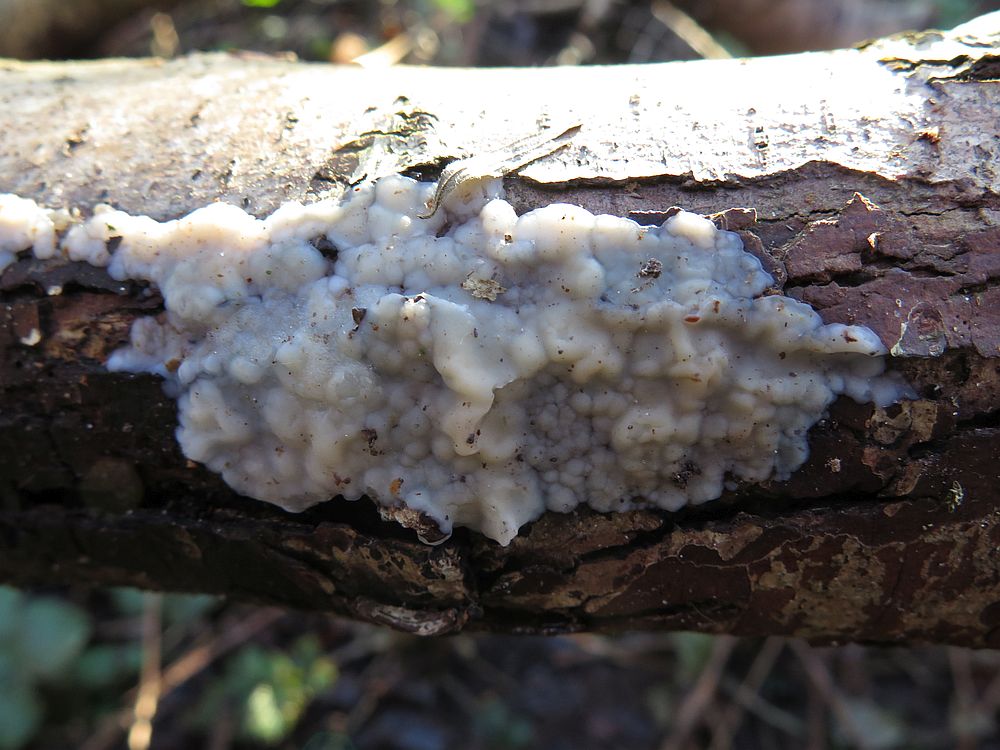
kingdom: Fungi
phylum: Basidiomycota
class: Agaricomycetes
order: Auriculariales
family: Auriculariaceae
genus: Exidia
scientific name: Exidia thuretiana
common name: hvidlig bævretop
